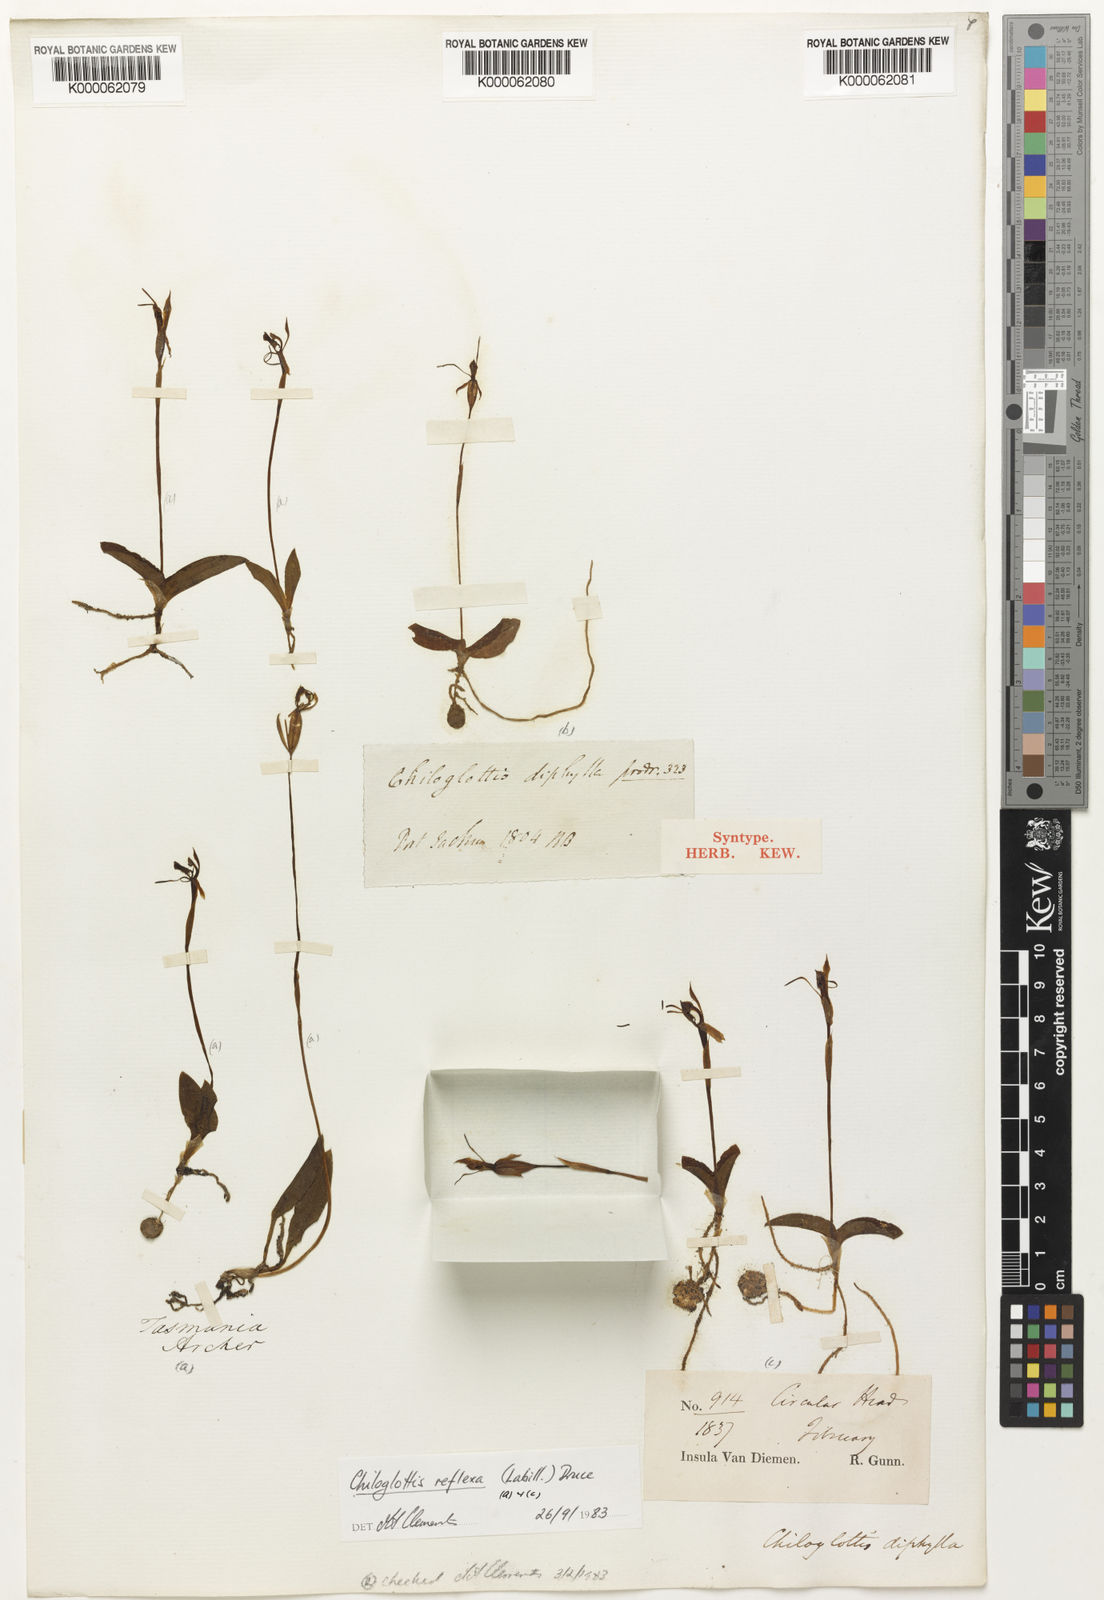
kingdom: Plantae
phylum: Tracheophyta
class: Liliopsida
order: Asparagales
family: Orchidaceae
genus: Chiloglottis
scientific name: Chiloglottis diphylla
